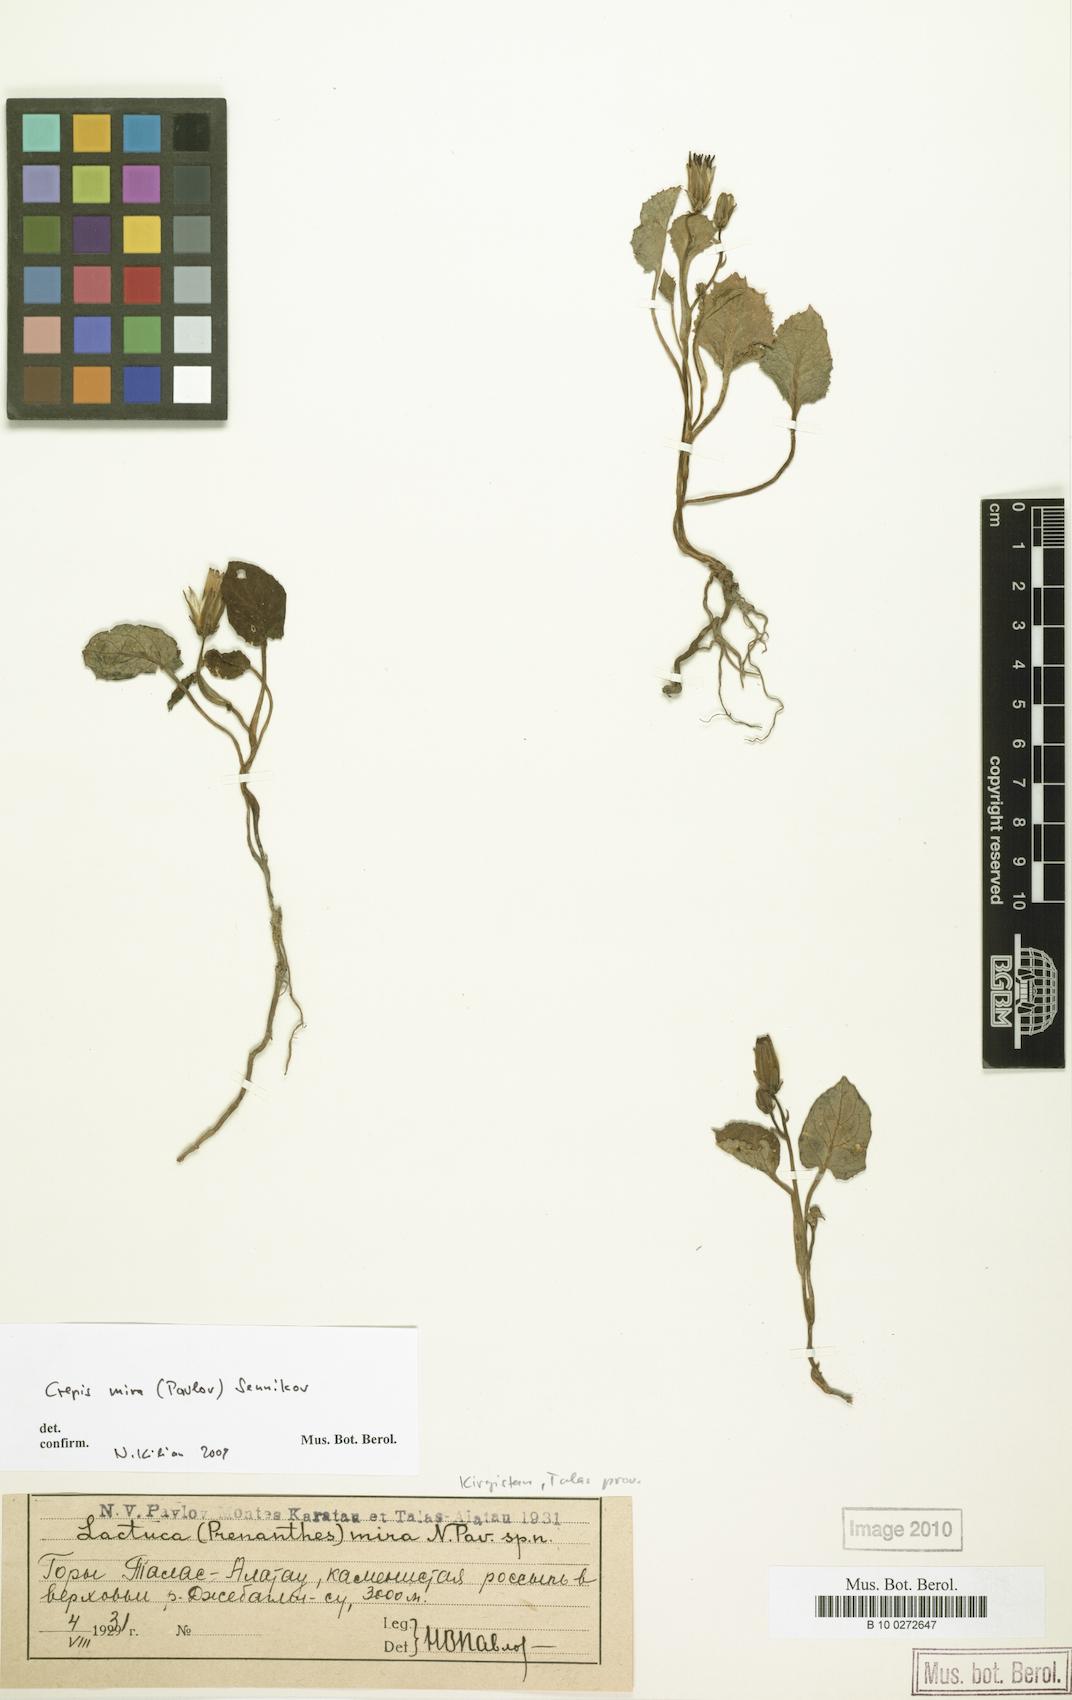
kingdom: Plantae
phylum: Tracheophyta
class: Magnoliopsida
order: Asterales
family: Asteraceae
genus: Crepis
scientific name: Crepis mira
